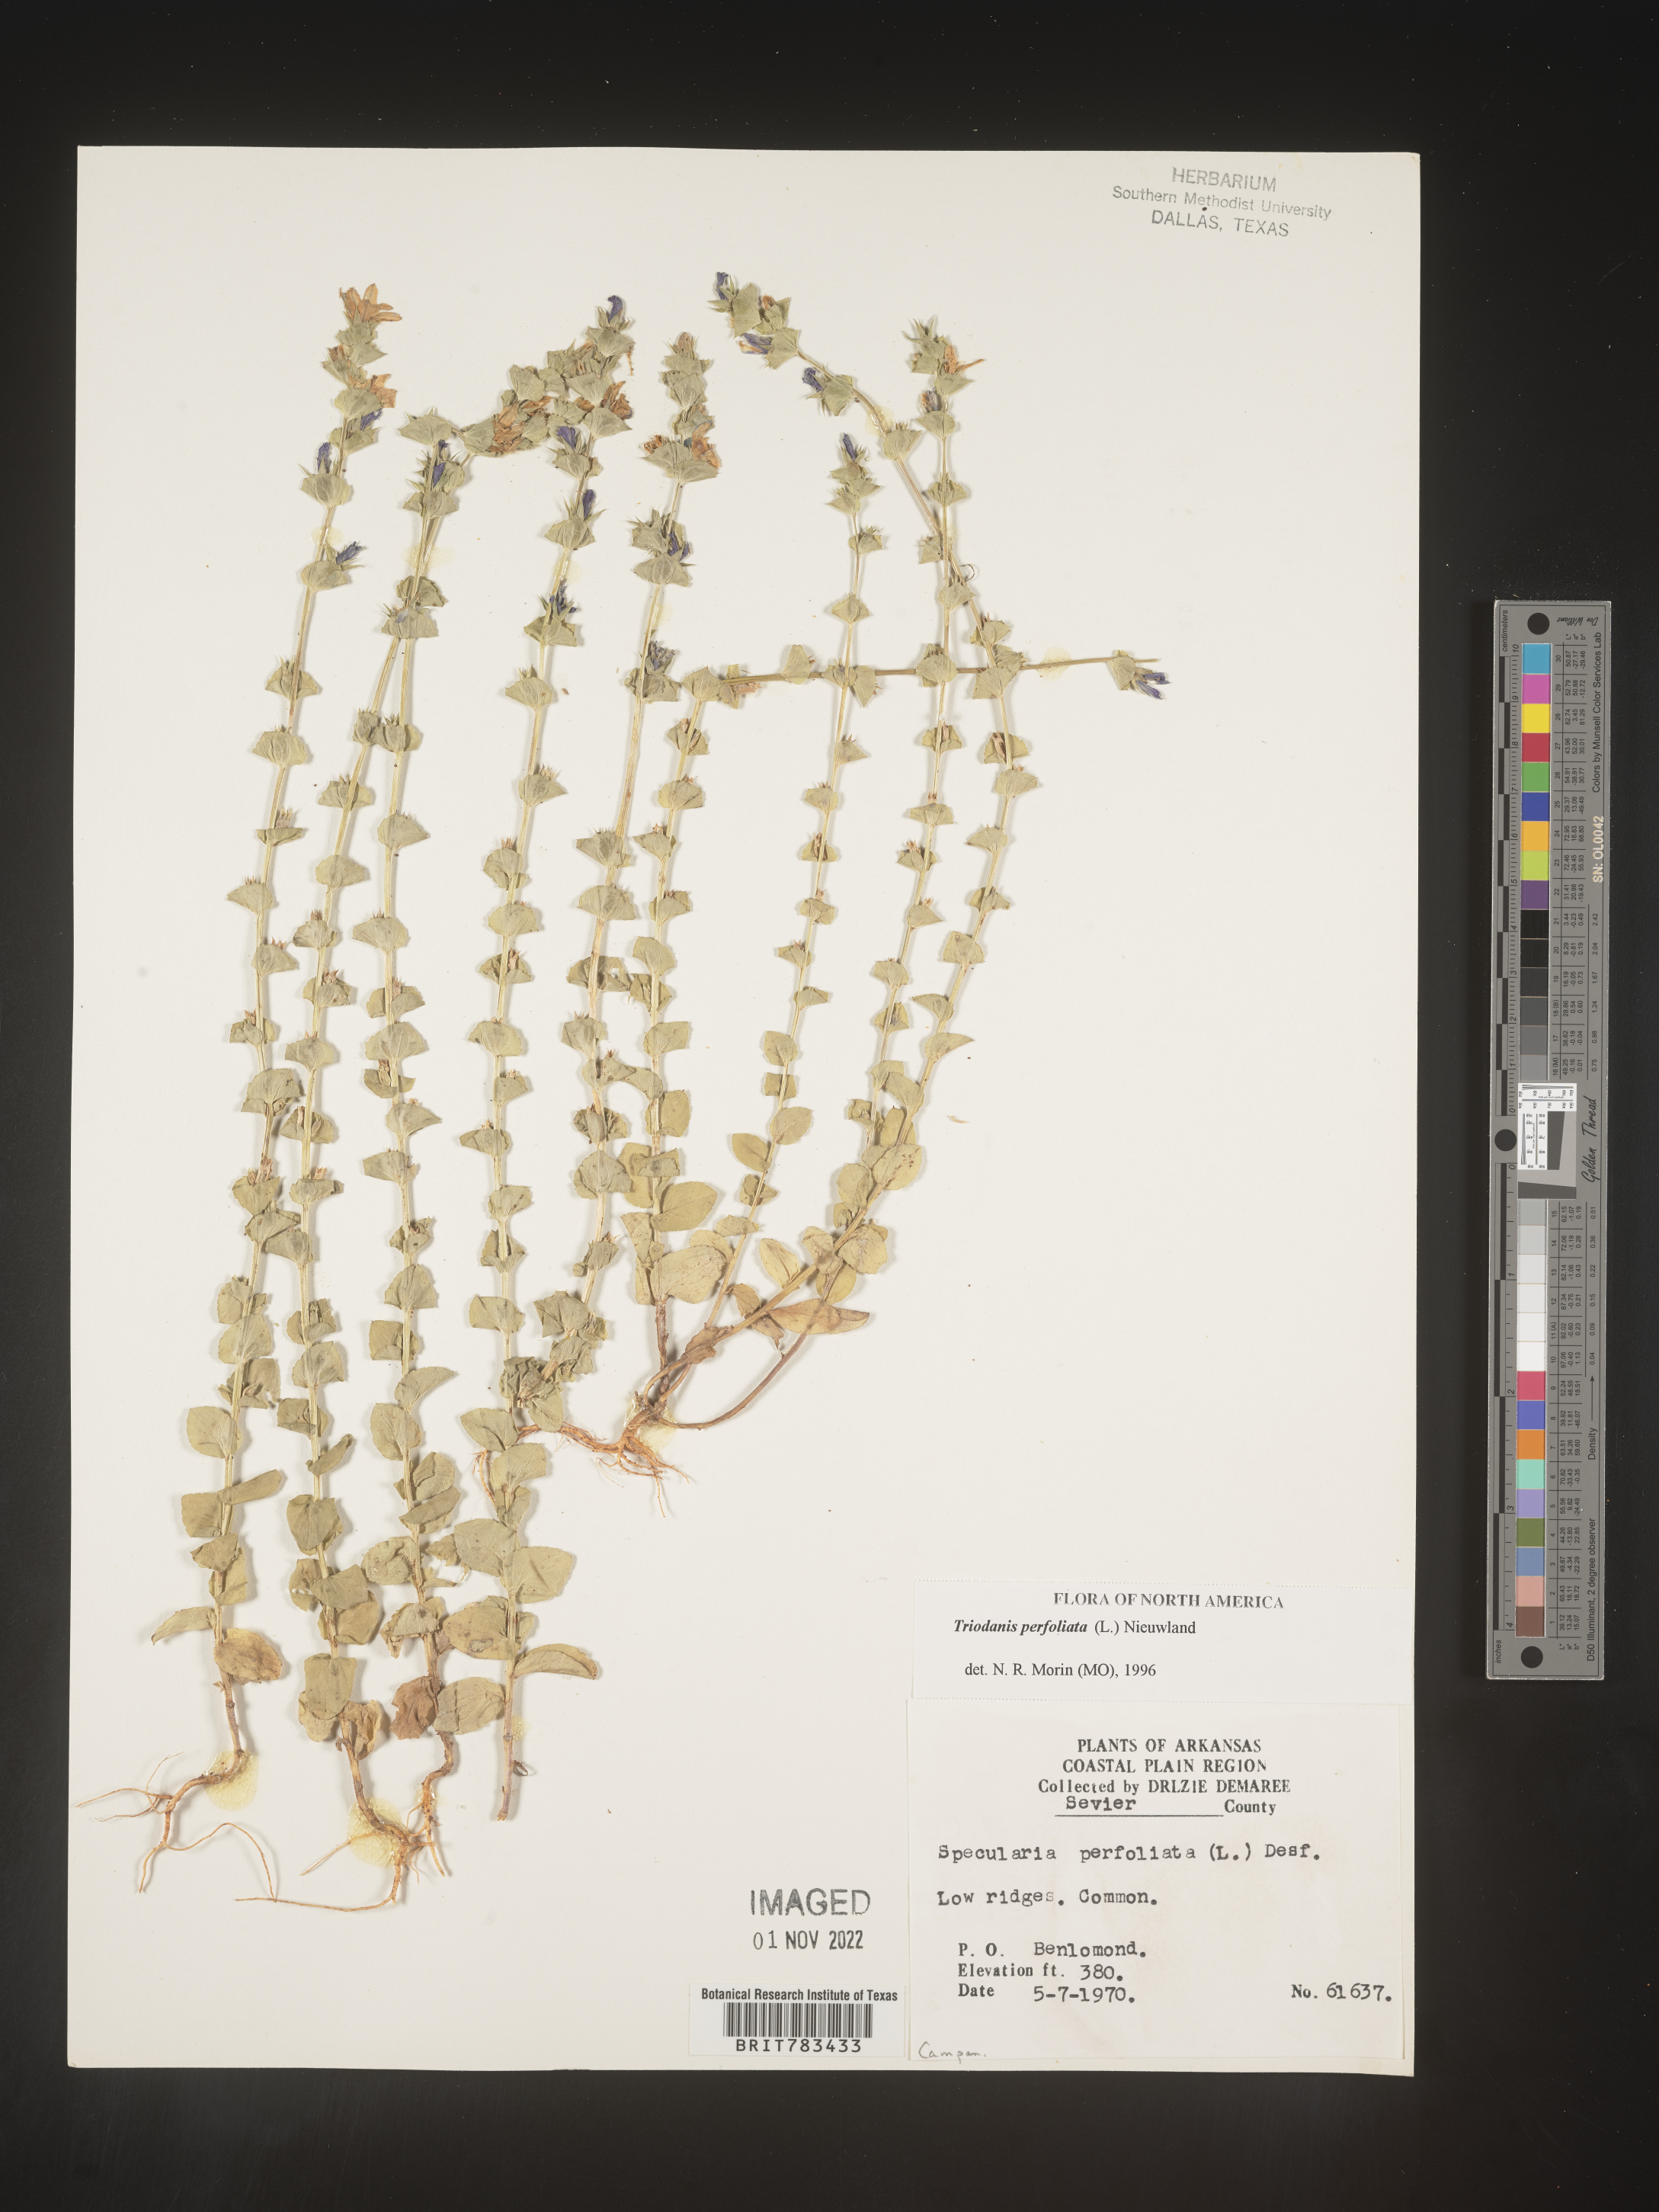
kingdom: Plantae
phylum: Tracheophyta
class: Magnoliopsida
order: Asterales
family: Campanulaceae
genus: Triodanis
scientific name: Triodanis perfoliata
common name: Clasping venus' looking-glass
